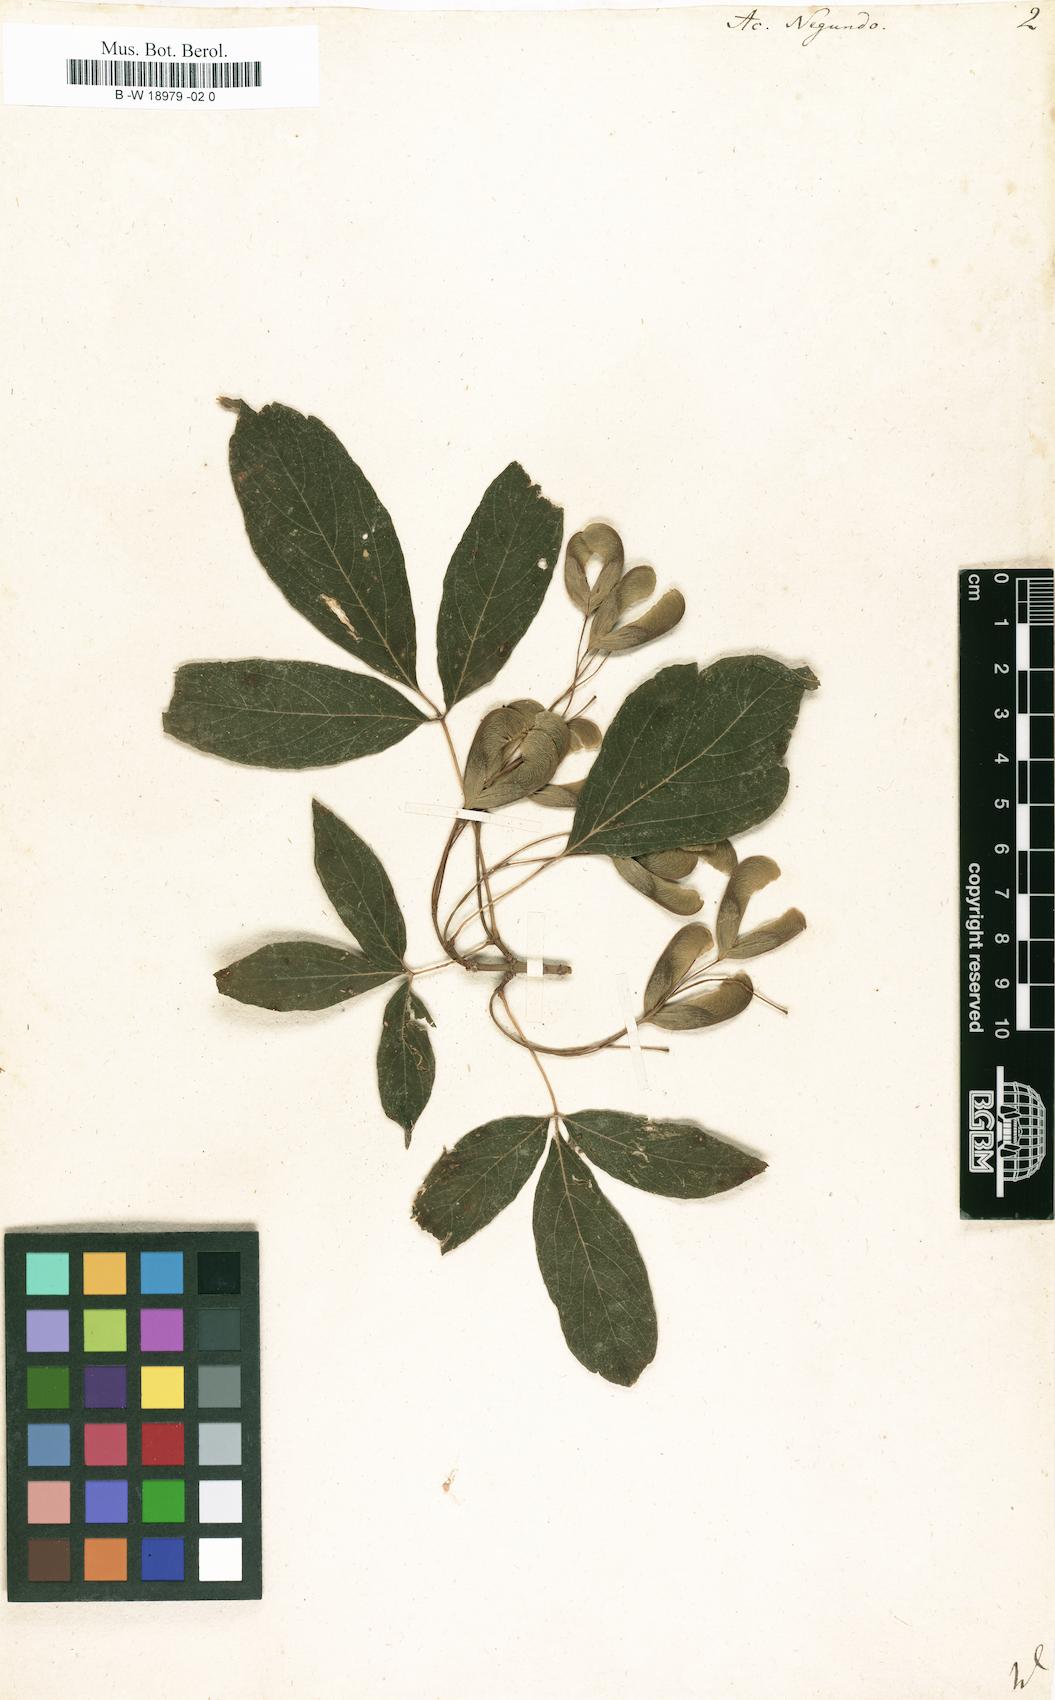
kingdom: Plantae
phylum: Tracheophyta
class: Magnoliopsida
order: Sapindales
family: Sapindaceae
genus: Acer
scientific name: Acer negundo
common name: Ashleaf maple
